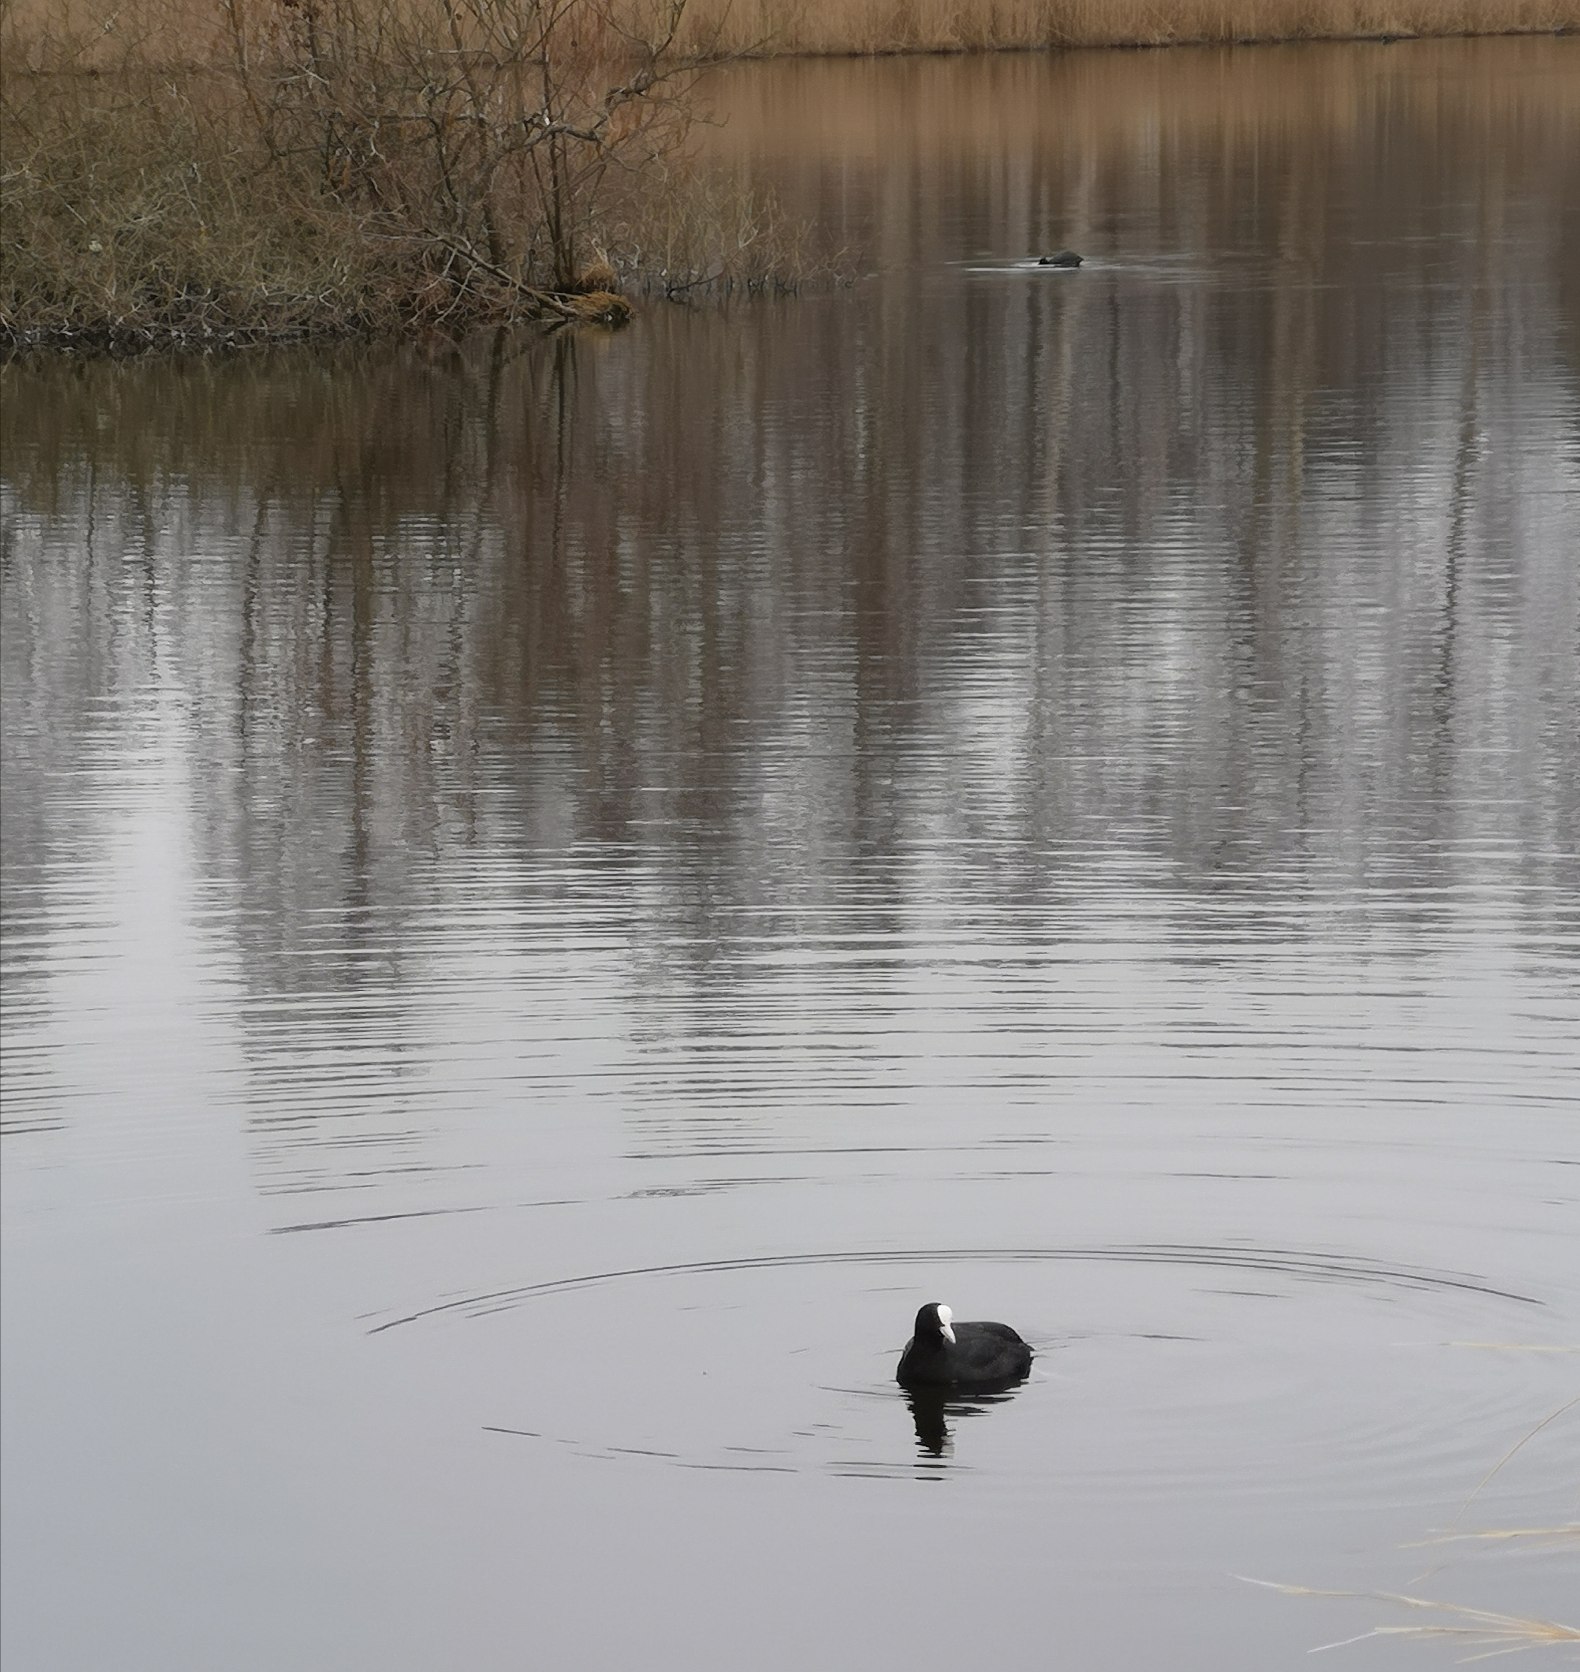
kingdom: Animalia
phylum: Chordata
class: Aves
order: Gruiformes
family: Rallidae
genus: Fulica
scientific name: Fulica atra
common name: Blishøne
